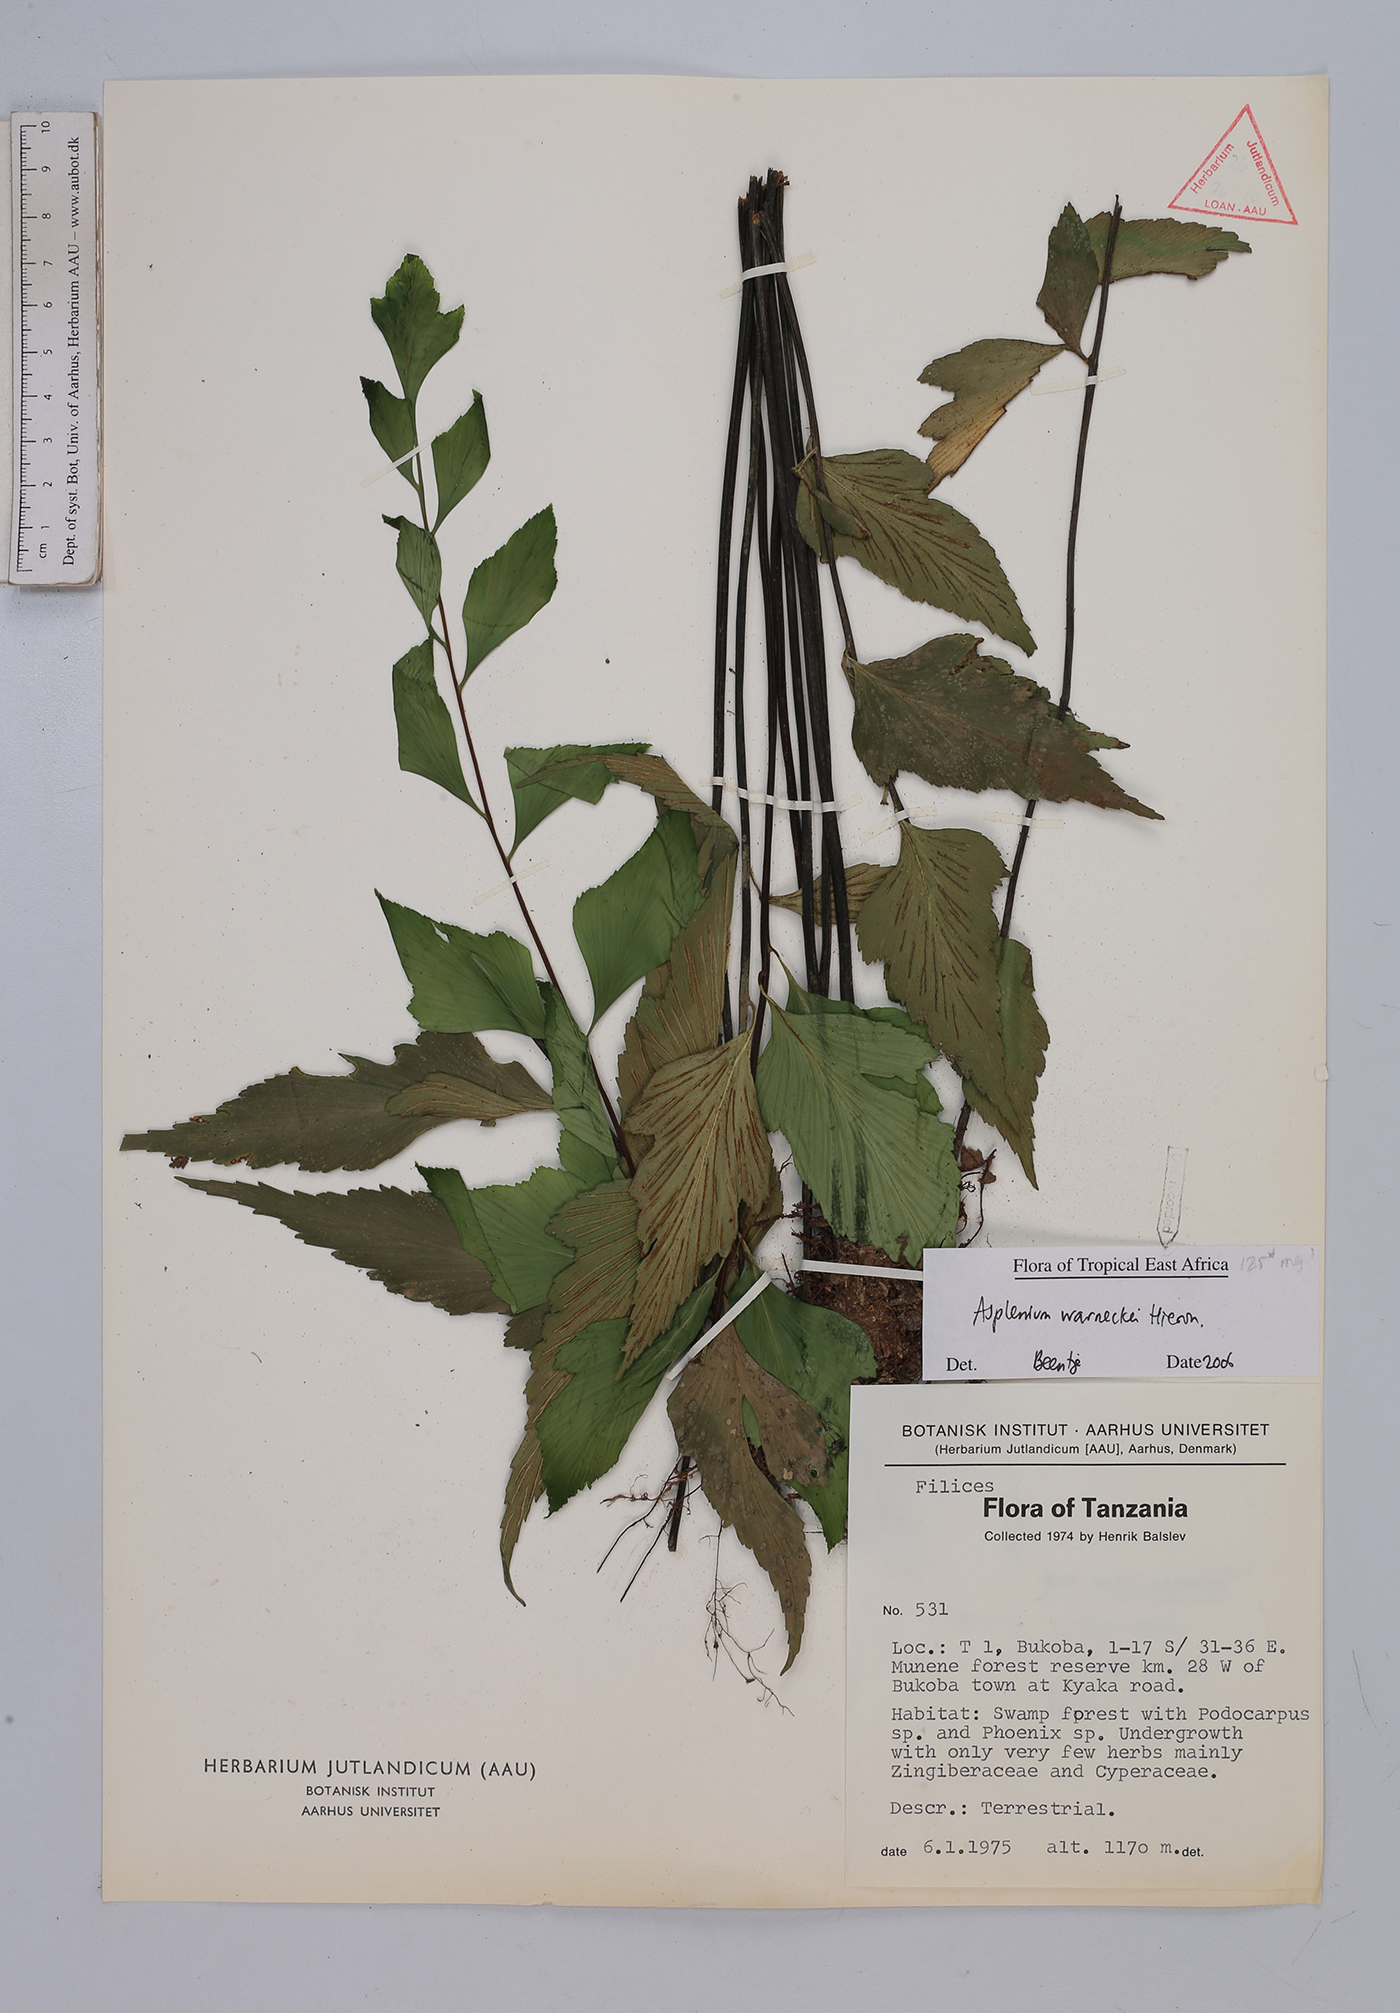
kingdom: Plantae
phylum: Tracheophyta
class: Polypodiopsida
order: Polypodiales
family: Aspleniaceae
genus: Asplenium
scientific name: Asplenium warneckei
